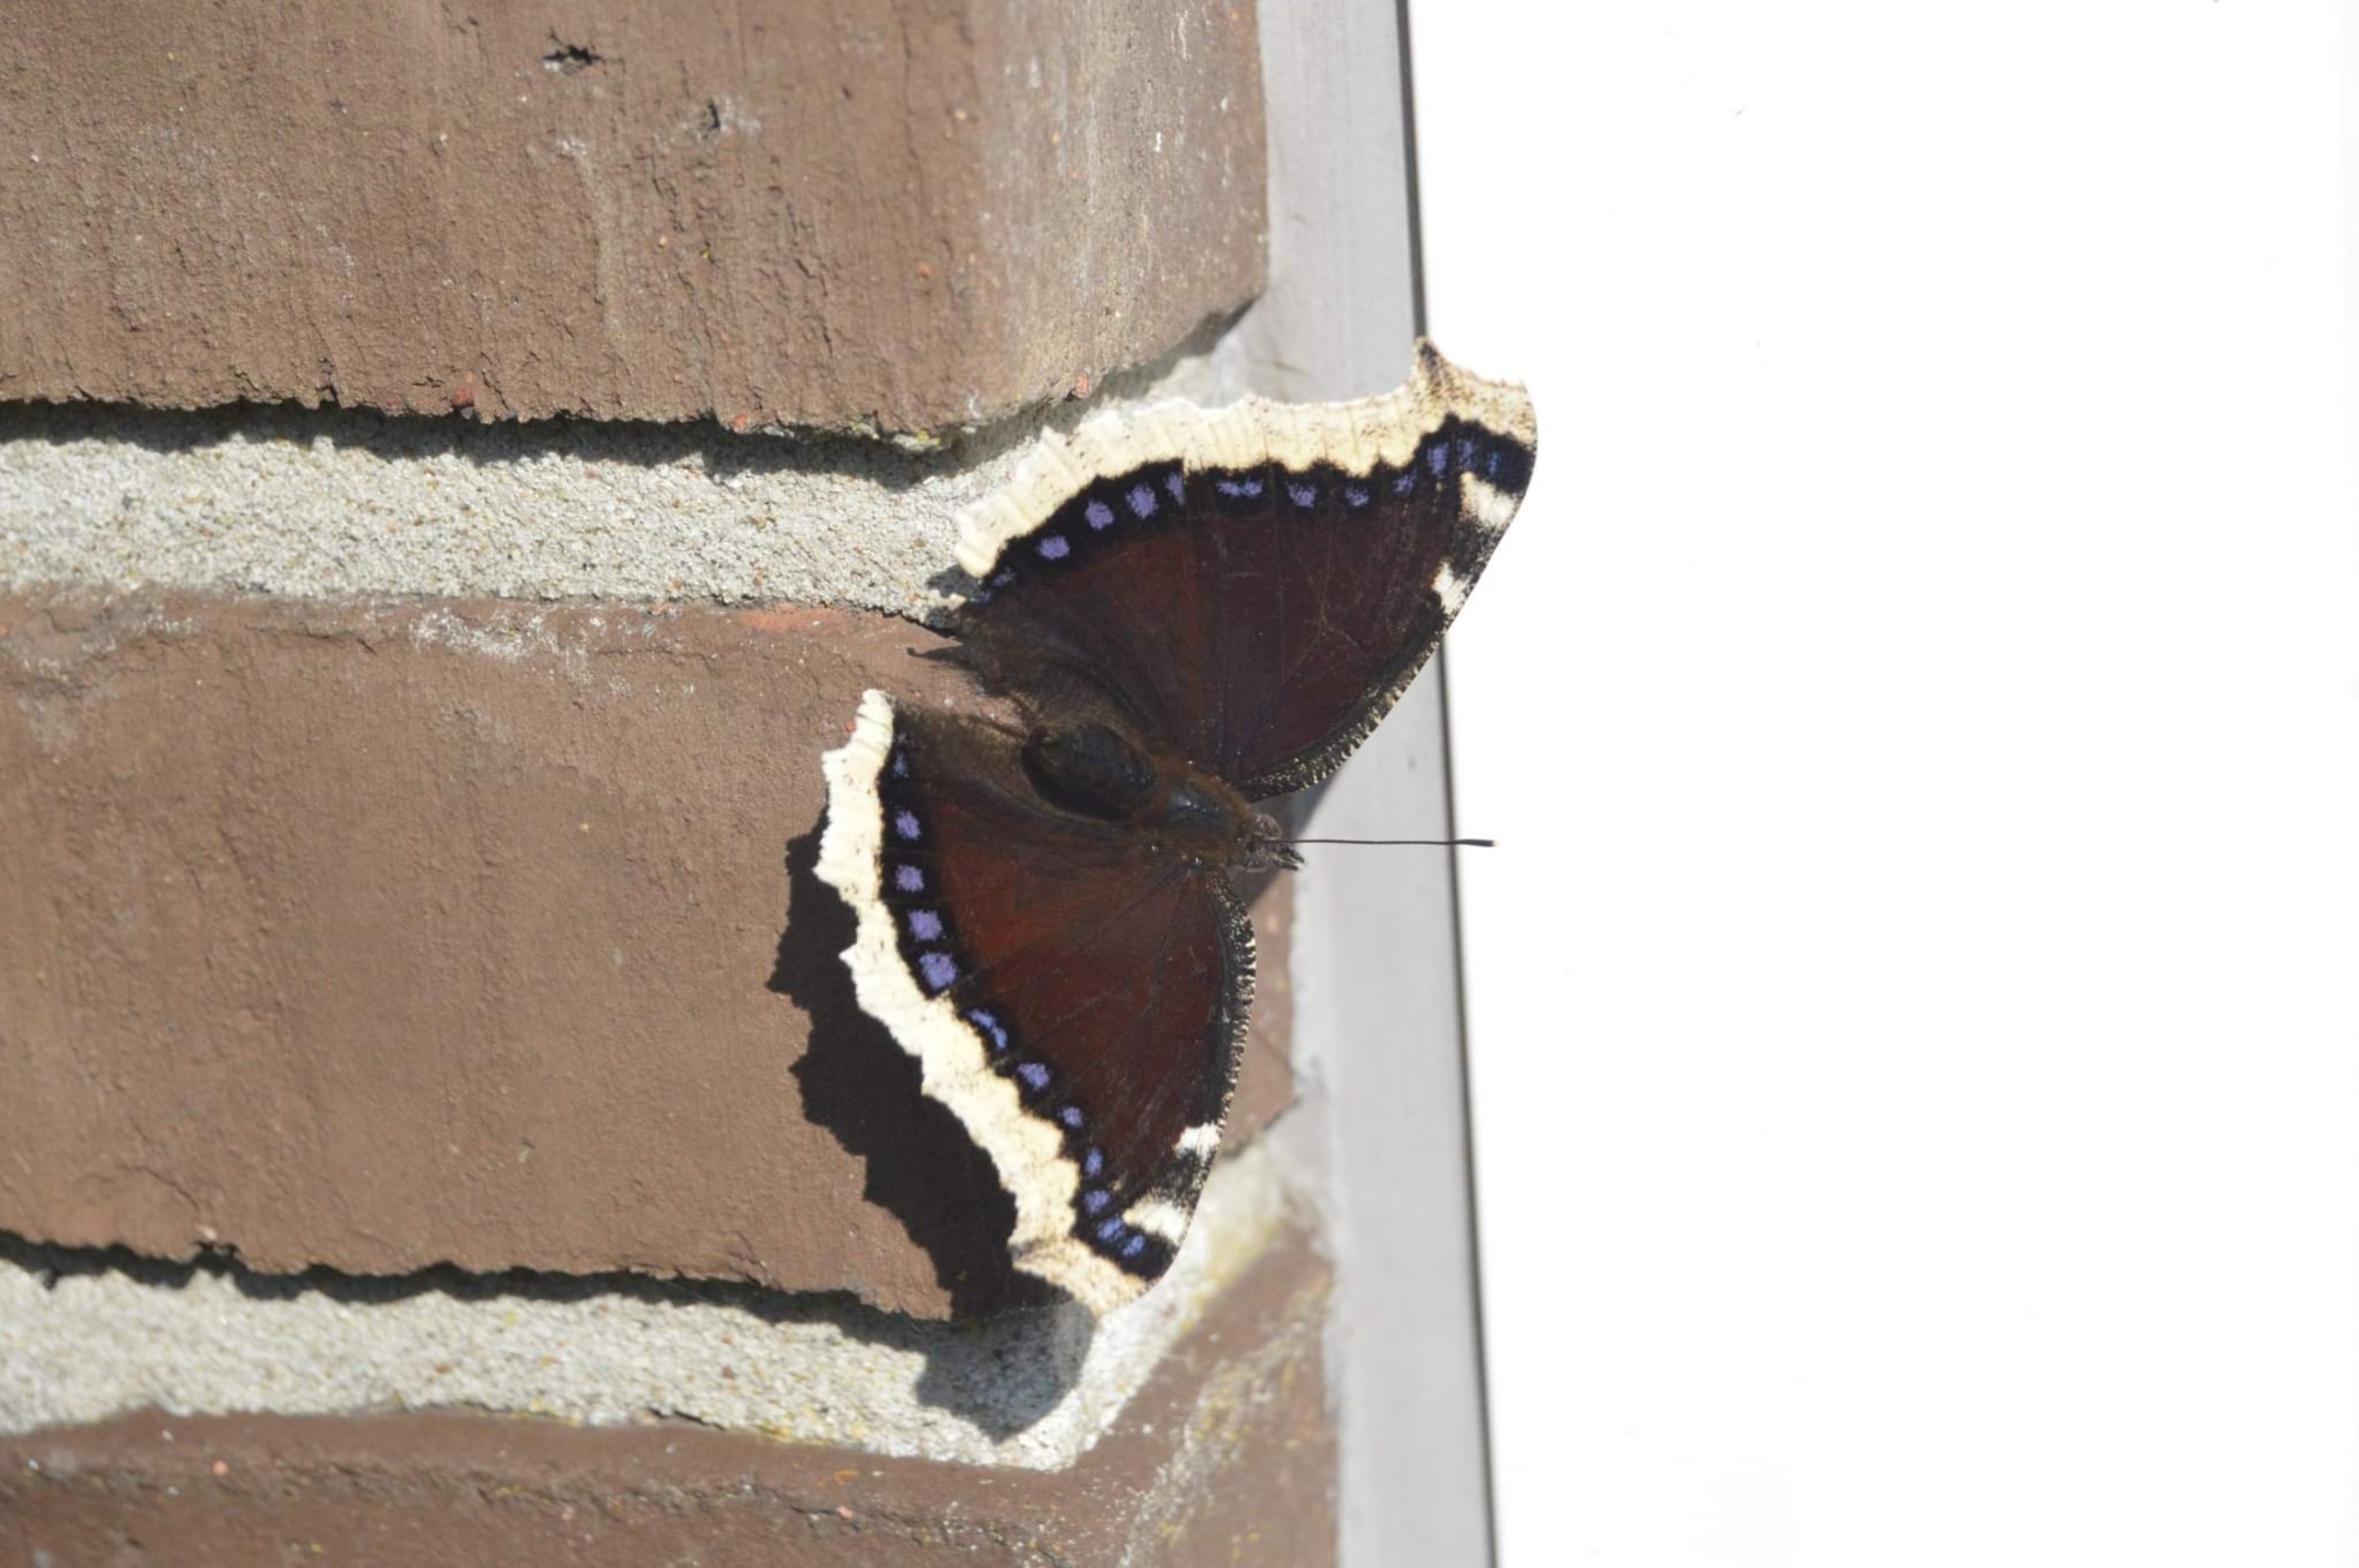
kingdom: Animalia
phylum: Arthropoda
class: Insecta
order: Lepidoptera
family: Nymphalidae
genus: Nymphalis
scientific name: Nymphalis antiopa
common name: Sørgekåbe
